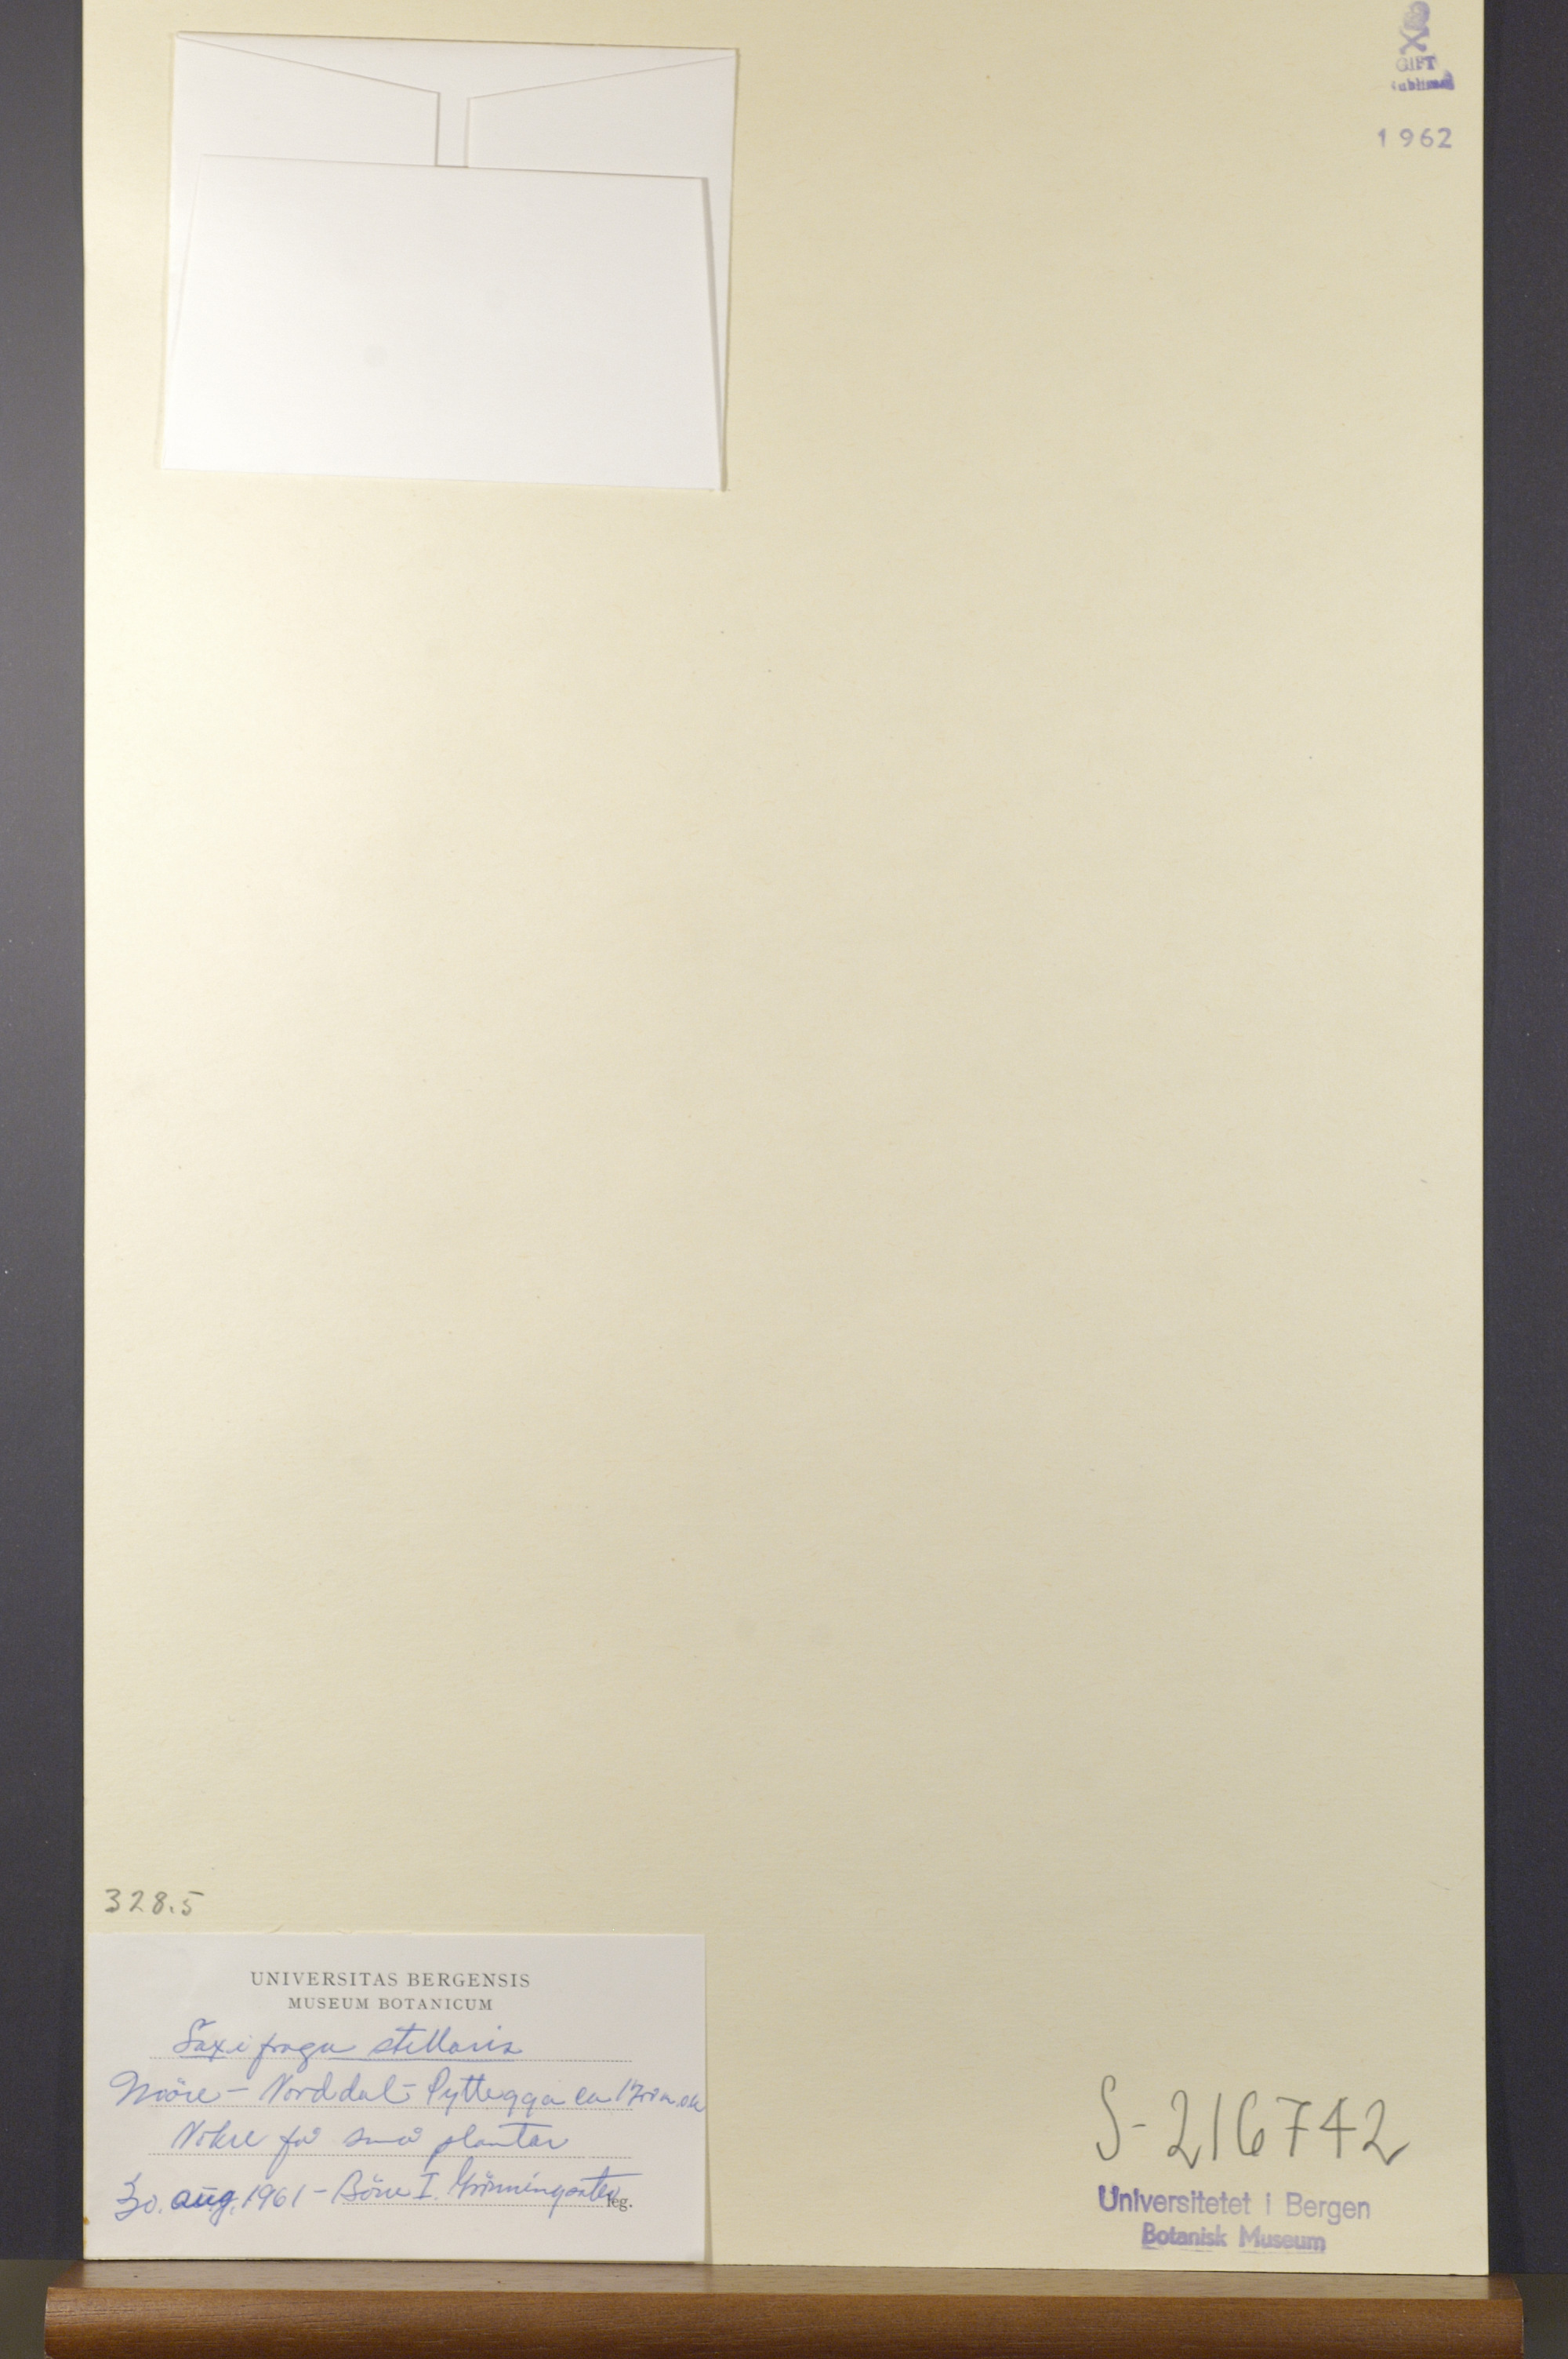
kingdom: Plantae
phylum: Tracheophyta
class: Magnoliopsida
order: Saxifragales
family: Saxifragaceae
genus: Micranthes
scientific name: Micranthes stellaris
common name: Starry saxifrage
